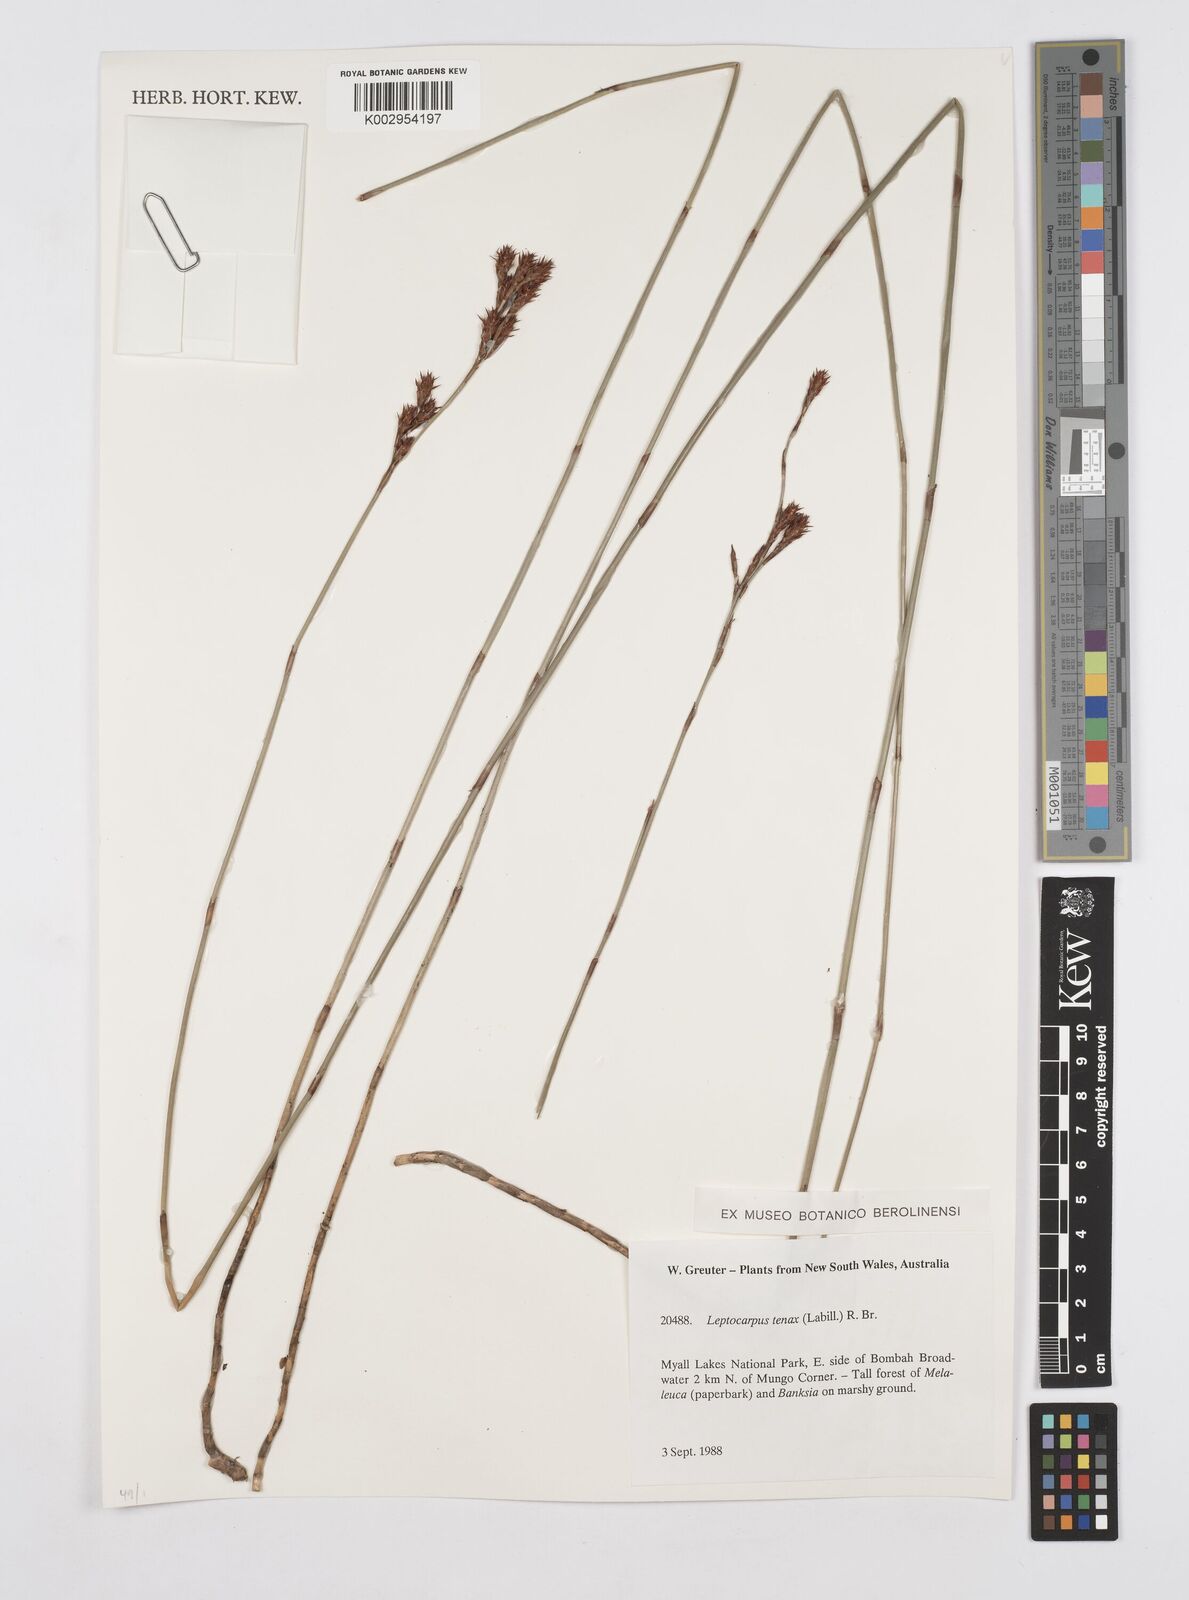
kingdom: Plantae
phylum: Tracheophyta
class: Liliopsida
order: Poales
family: Restionaceae
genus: Leptocarpus
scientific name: Leptocarpus tenax
